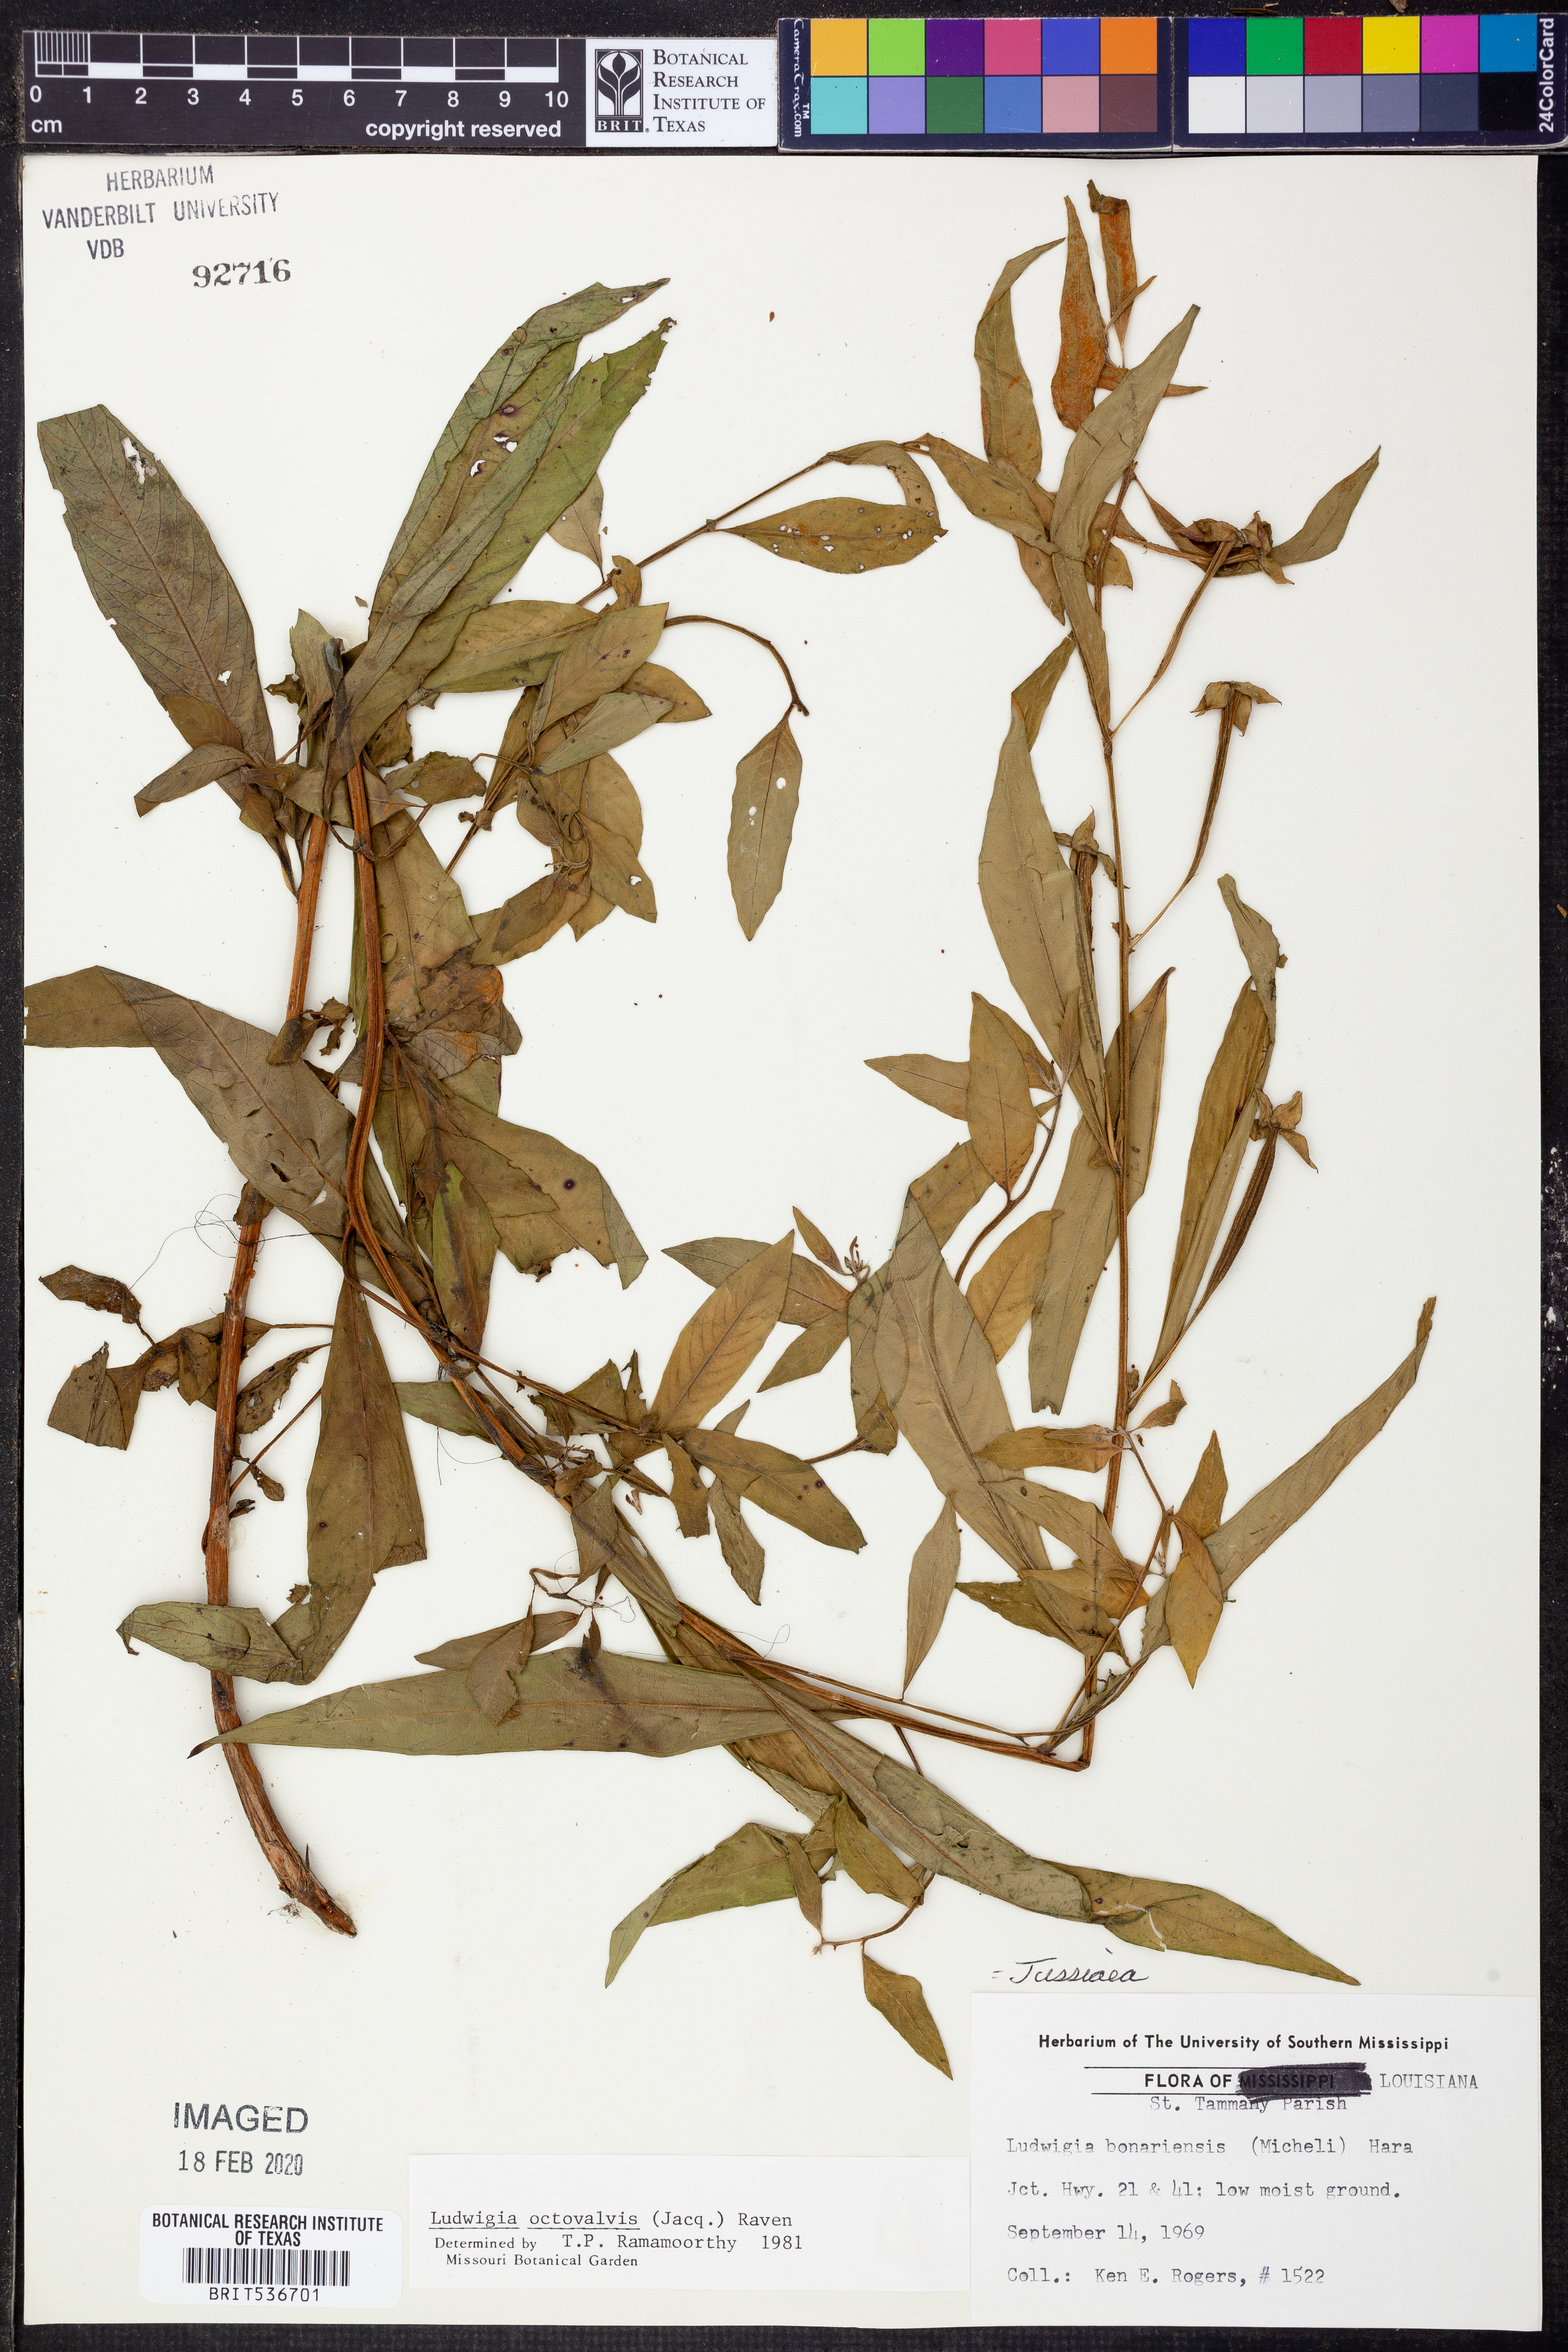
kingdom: Plantae
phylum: Tracheophyta
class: Magnoliopsida
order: Myrtales
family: Onagraceae
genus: Ludwigia
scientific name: Ludwigia octovalvis
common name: Water-primrose
